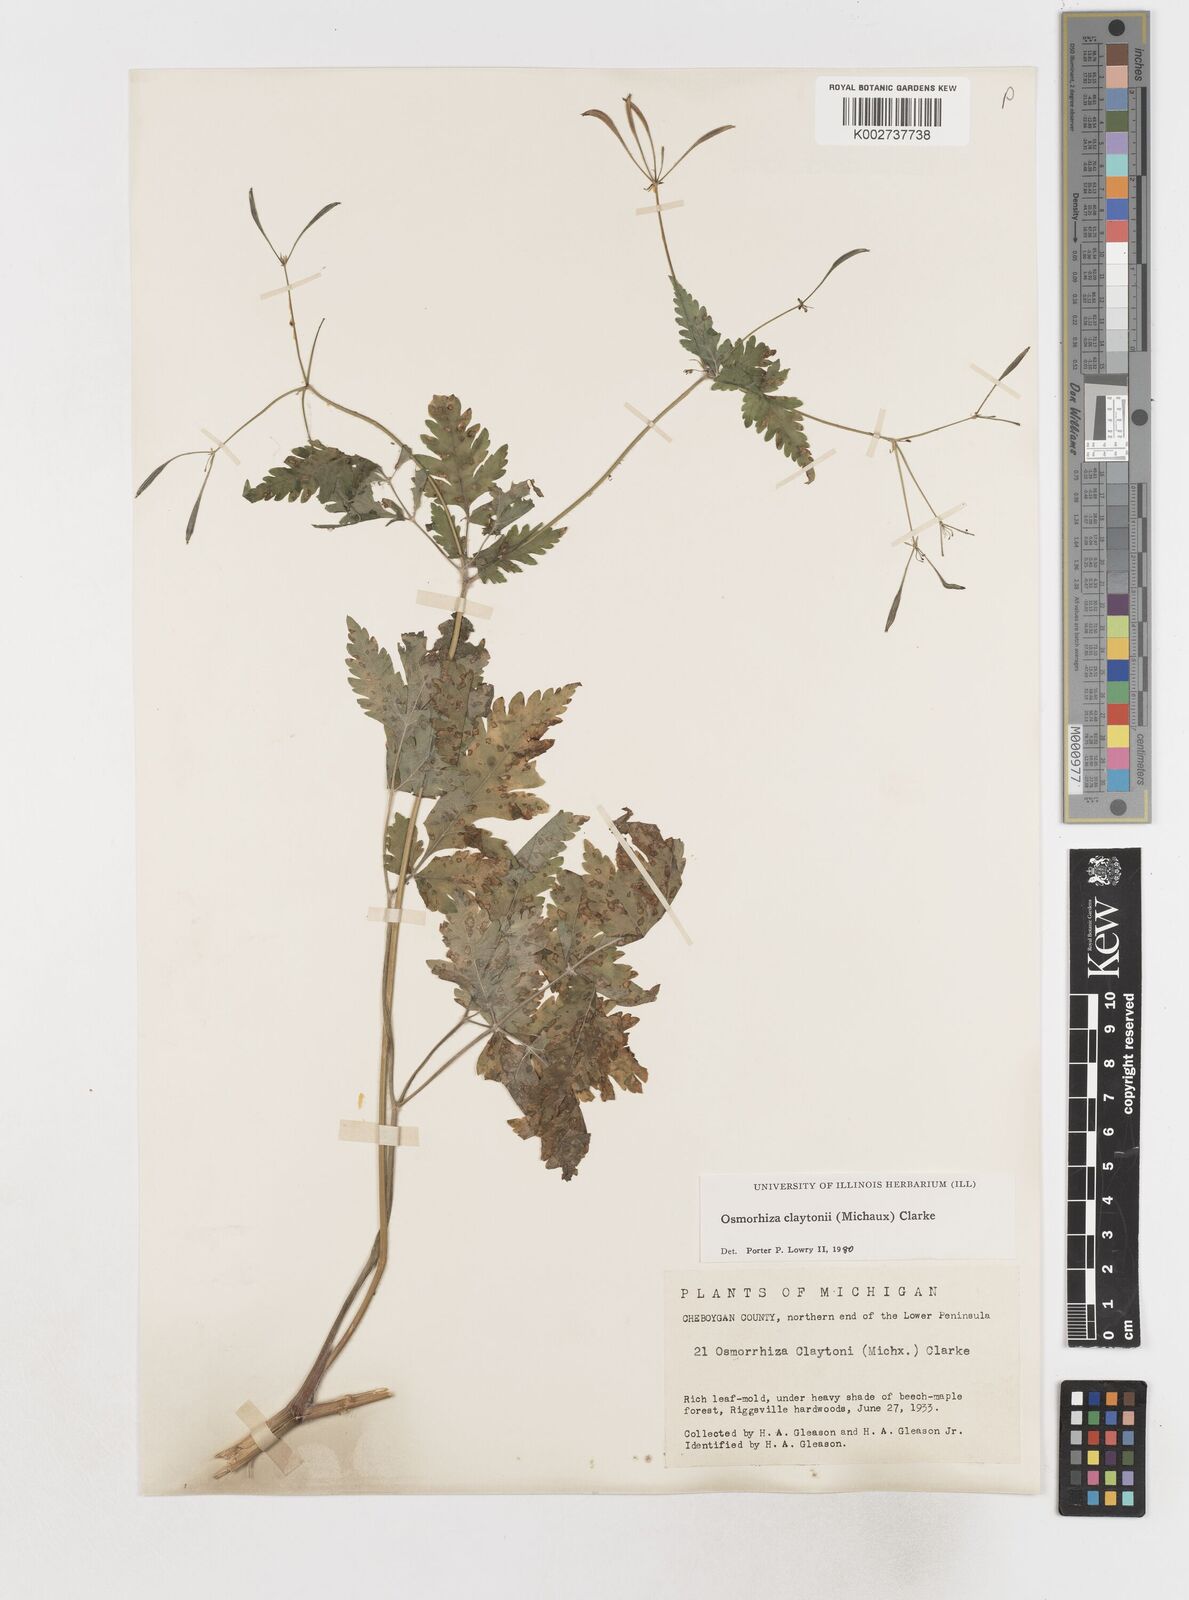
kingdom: Plantae
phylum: Tracheophyta
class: Magnoliopsida
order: Apiales
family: Apiaceae
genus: Osmorhiza
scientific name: Osmorhiza claytonii
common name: Hairy sweet cicely
